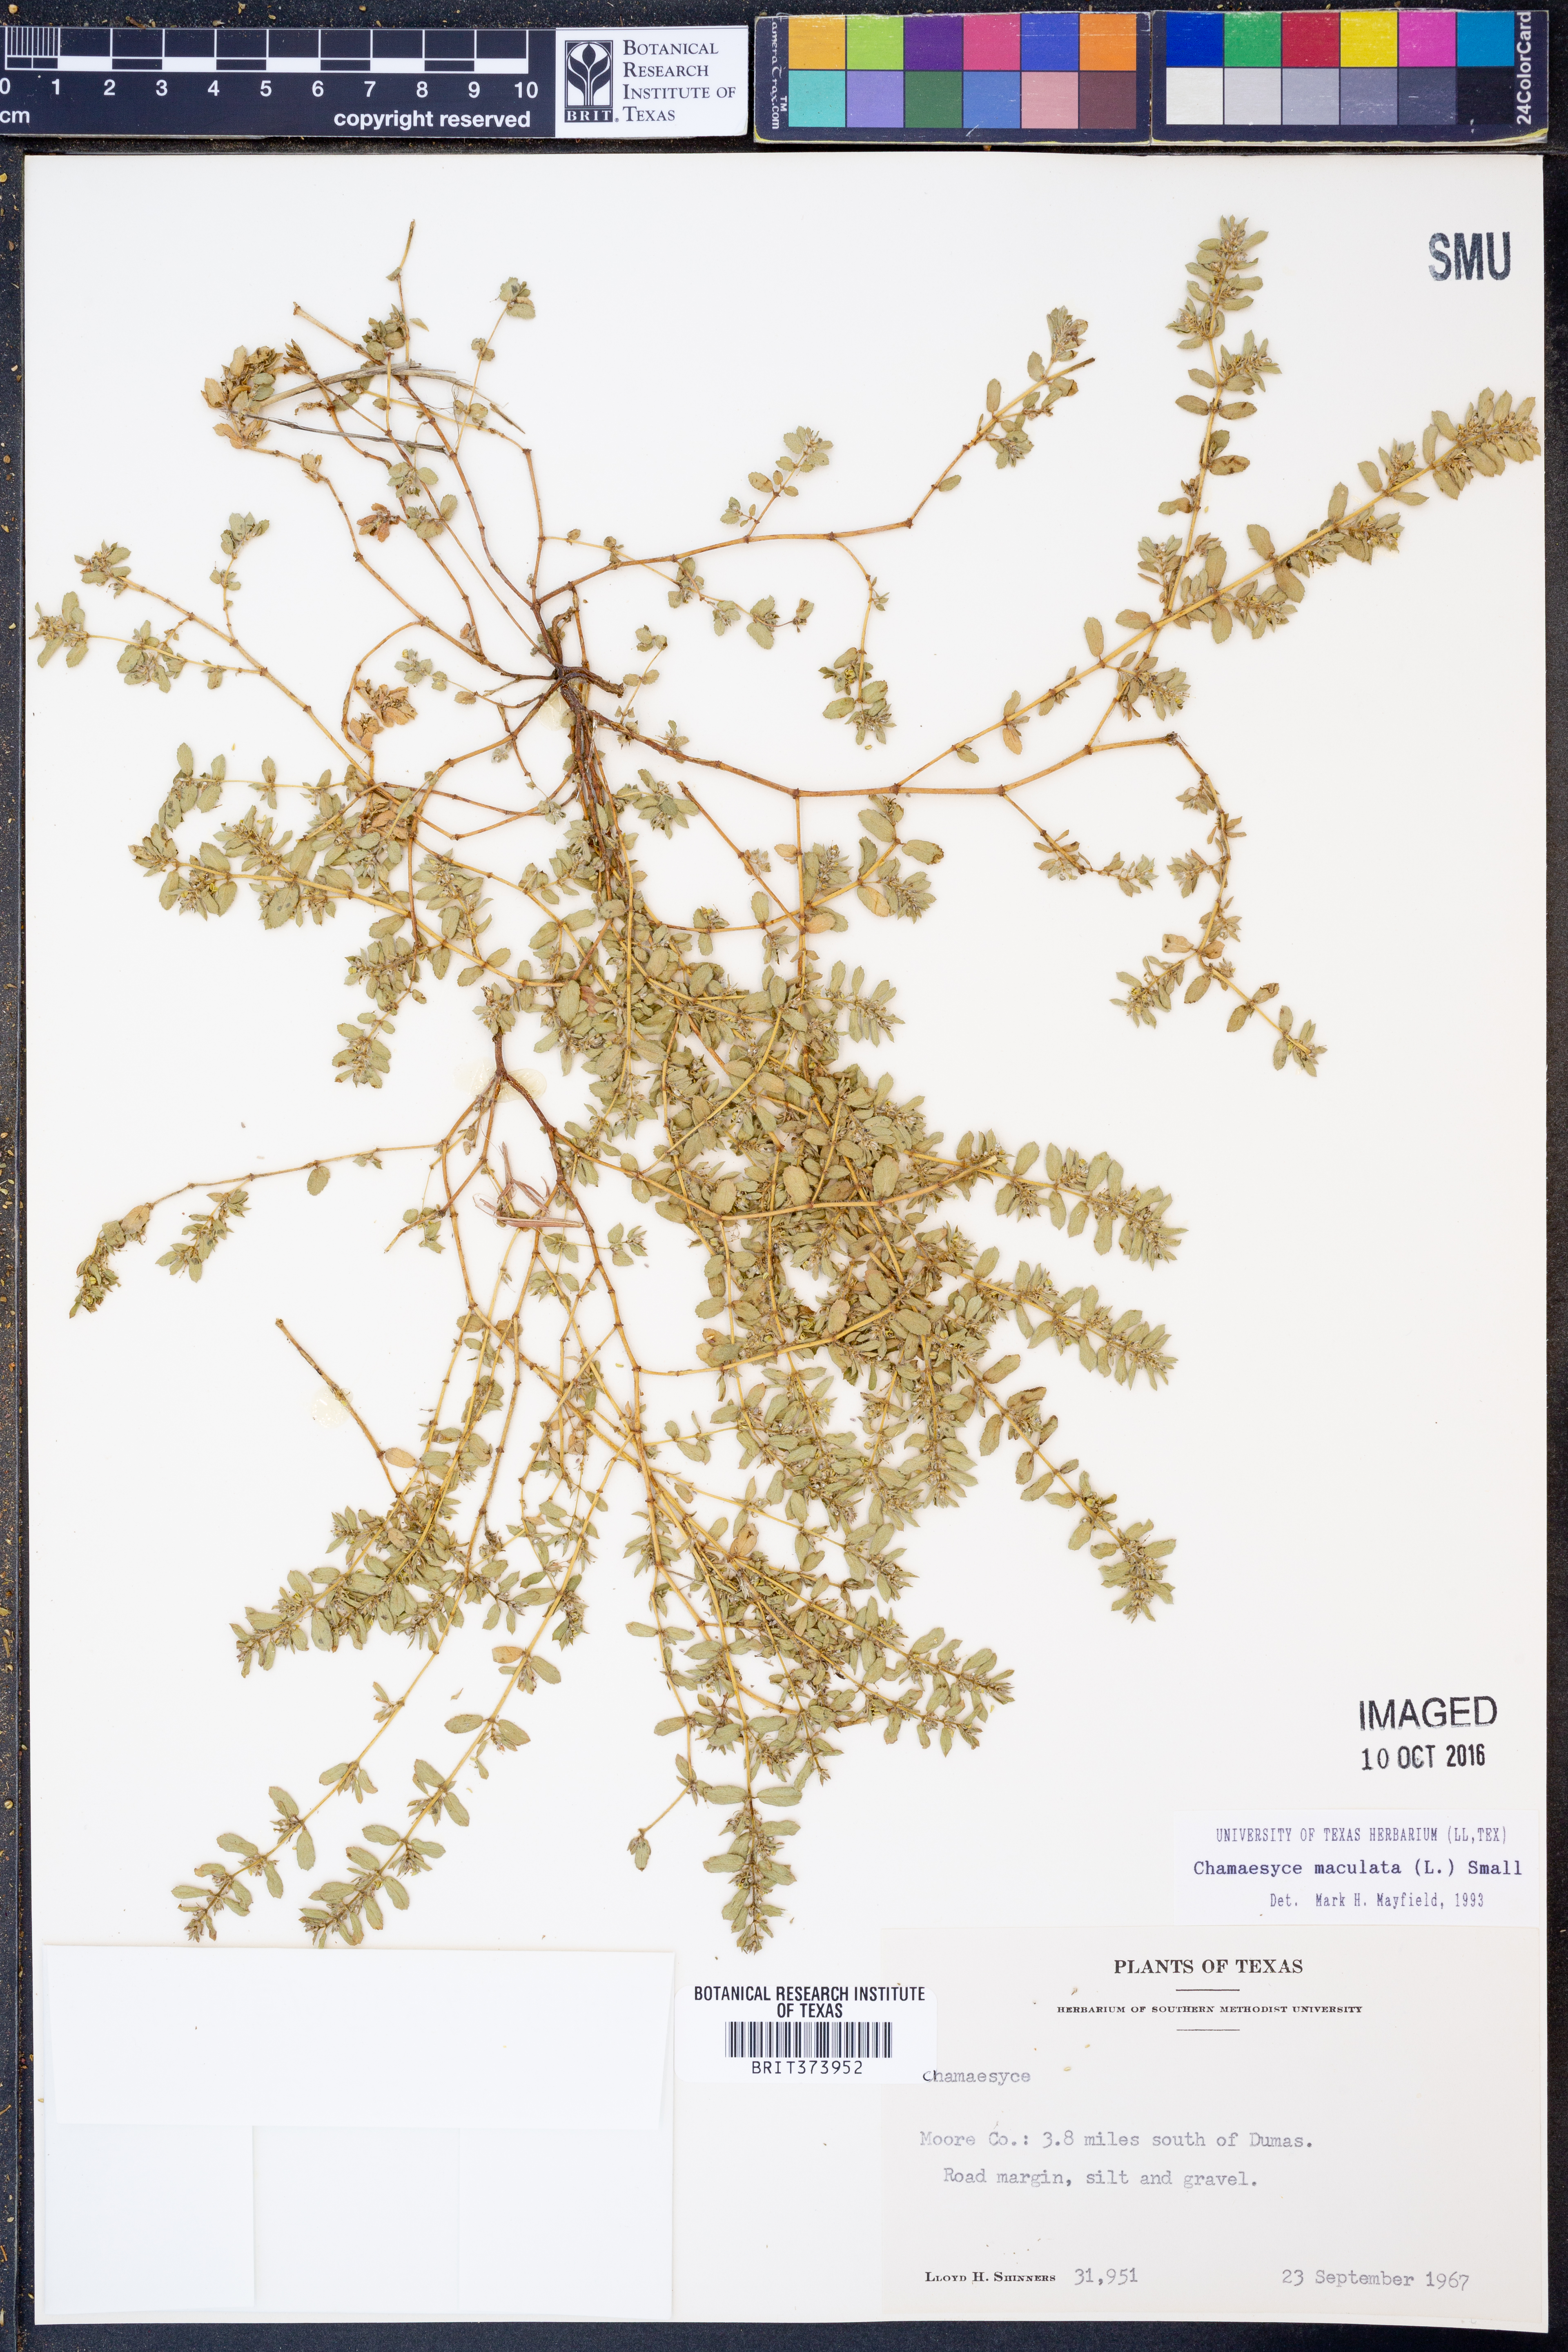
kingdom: Plantae
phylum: Tracheophyta
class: Magnoliopsida
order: Malpighiales
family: Euphorbiaceae
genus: Euphorbia
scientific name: Euphorbia maculata
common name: Spotted spurge
